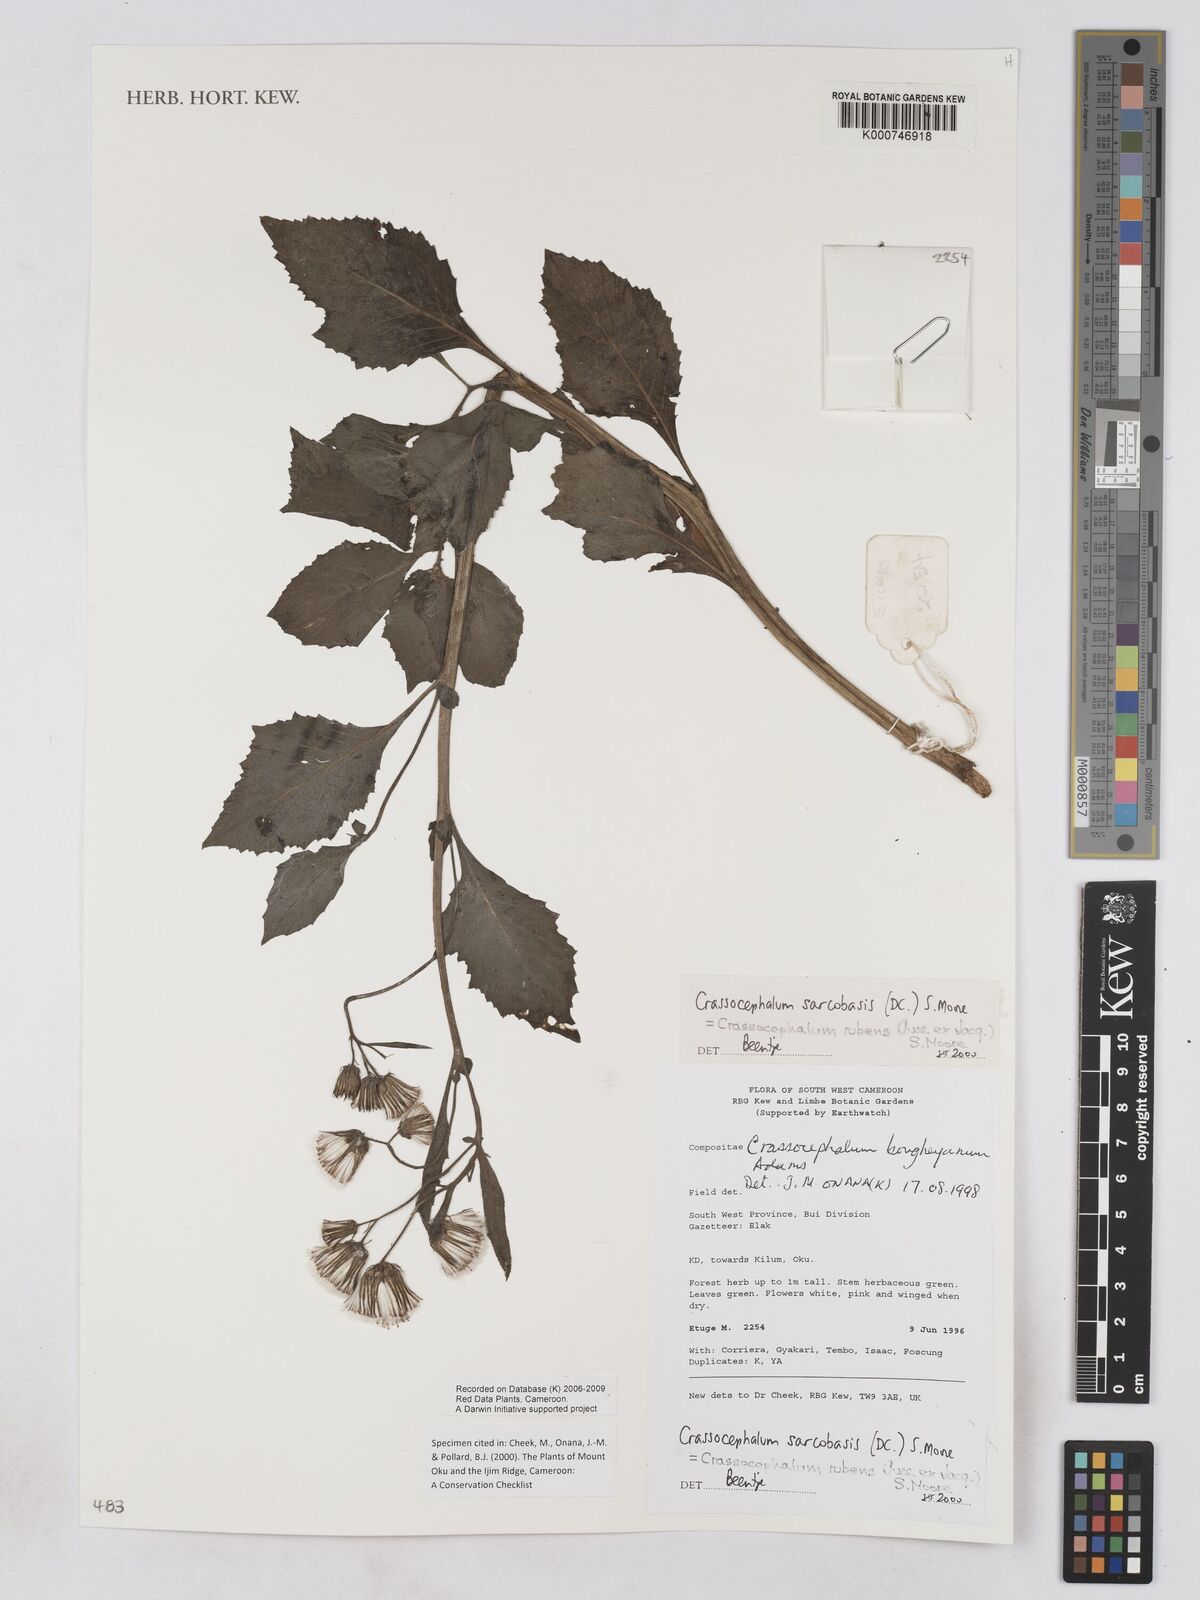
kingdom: Plantae
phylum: Tracheophyta
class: Magnoliopsida
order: Asterales
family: Asteraceae
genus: Crassocephalum
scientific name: Crassocephalum rubens
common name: Yoruban bologi
